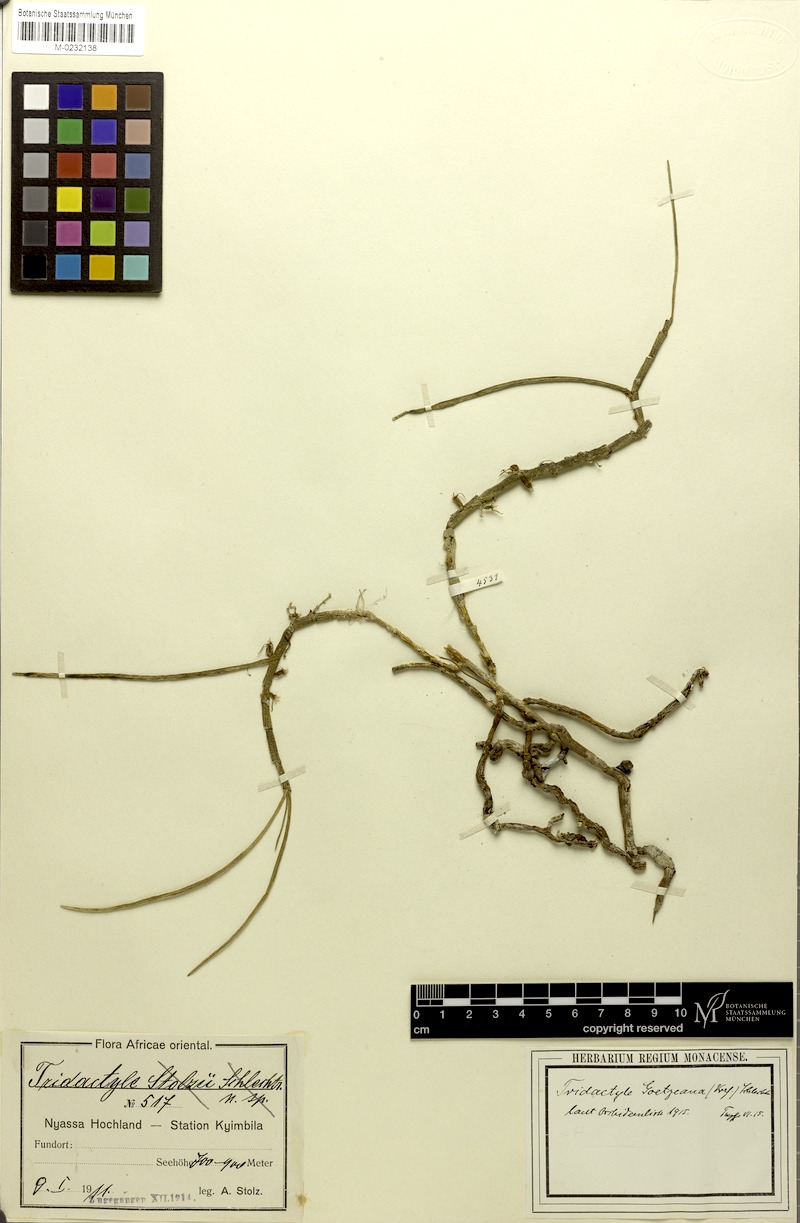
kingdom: Plantae
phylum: Tracheophyta
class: Liliopsida
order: Asparagales
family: Orchidaceae
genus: Tridactyle
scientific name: Tridactyle tridentata
